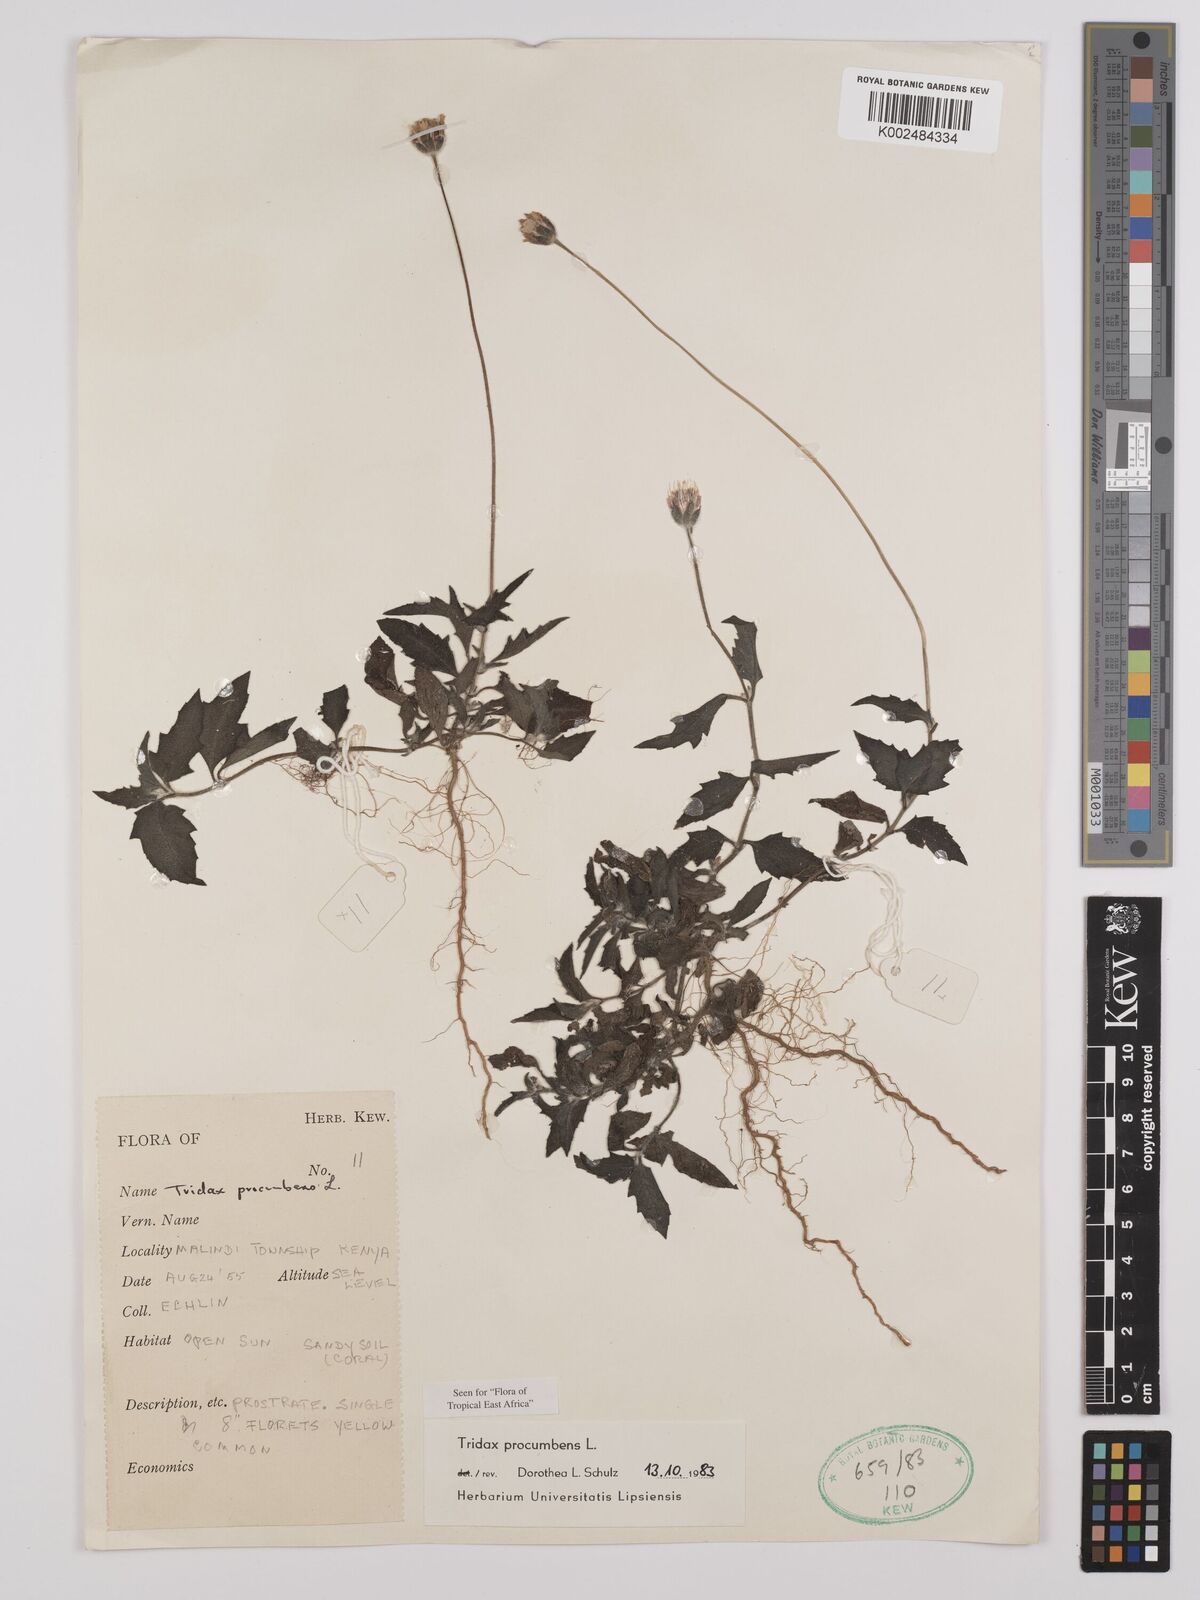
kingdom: Plantae
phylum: Tracheophyta
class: Magnoliopsida
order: Asterales
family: Asteraceae
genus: Tridax
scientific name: Tridax procumbens
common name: Coatbuttons
